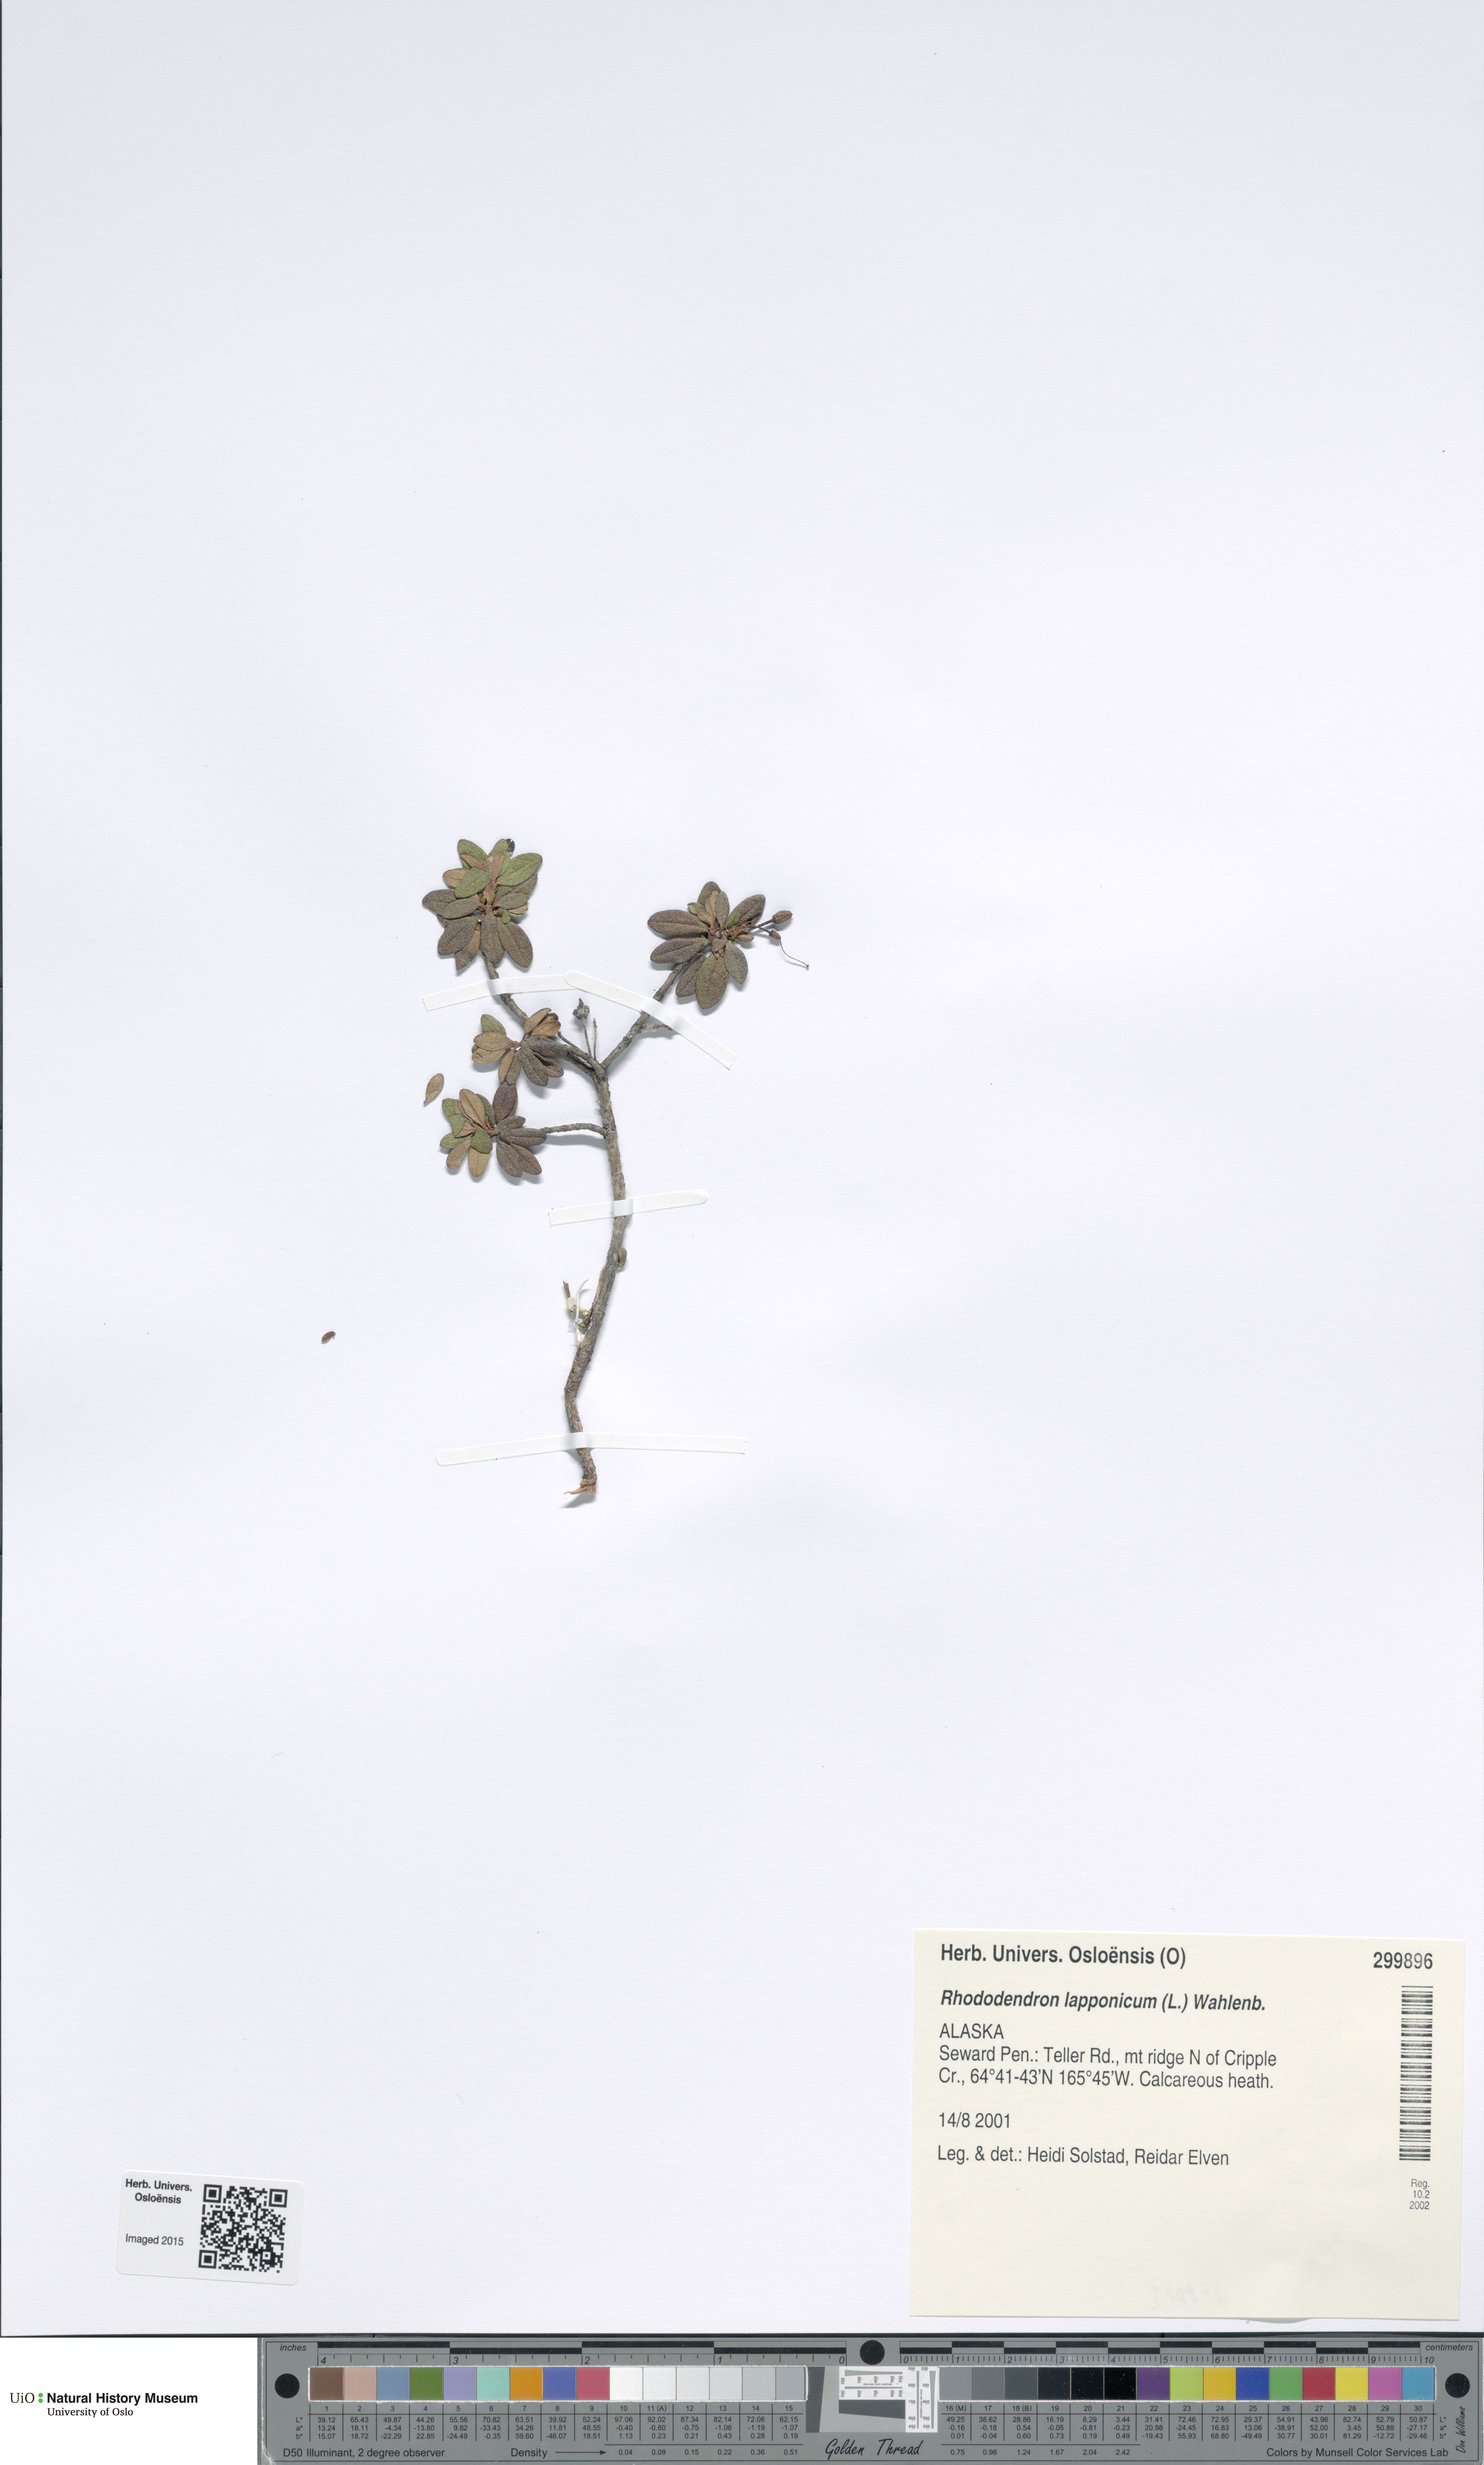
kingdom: Plantae
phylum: Tracheophyta
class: Magnoliopsida
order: Ericales
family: Ericaceae
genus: Rhododendron
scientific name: Rhododendron lapponicum
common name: Lapland rhododendron
